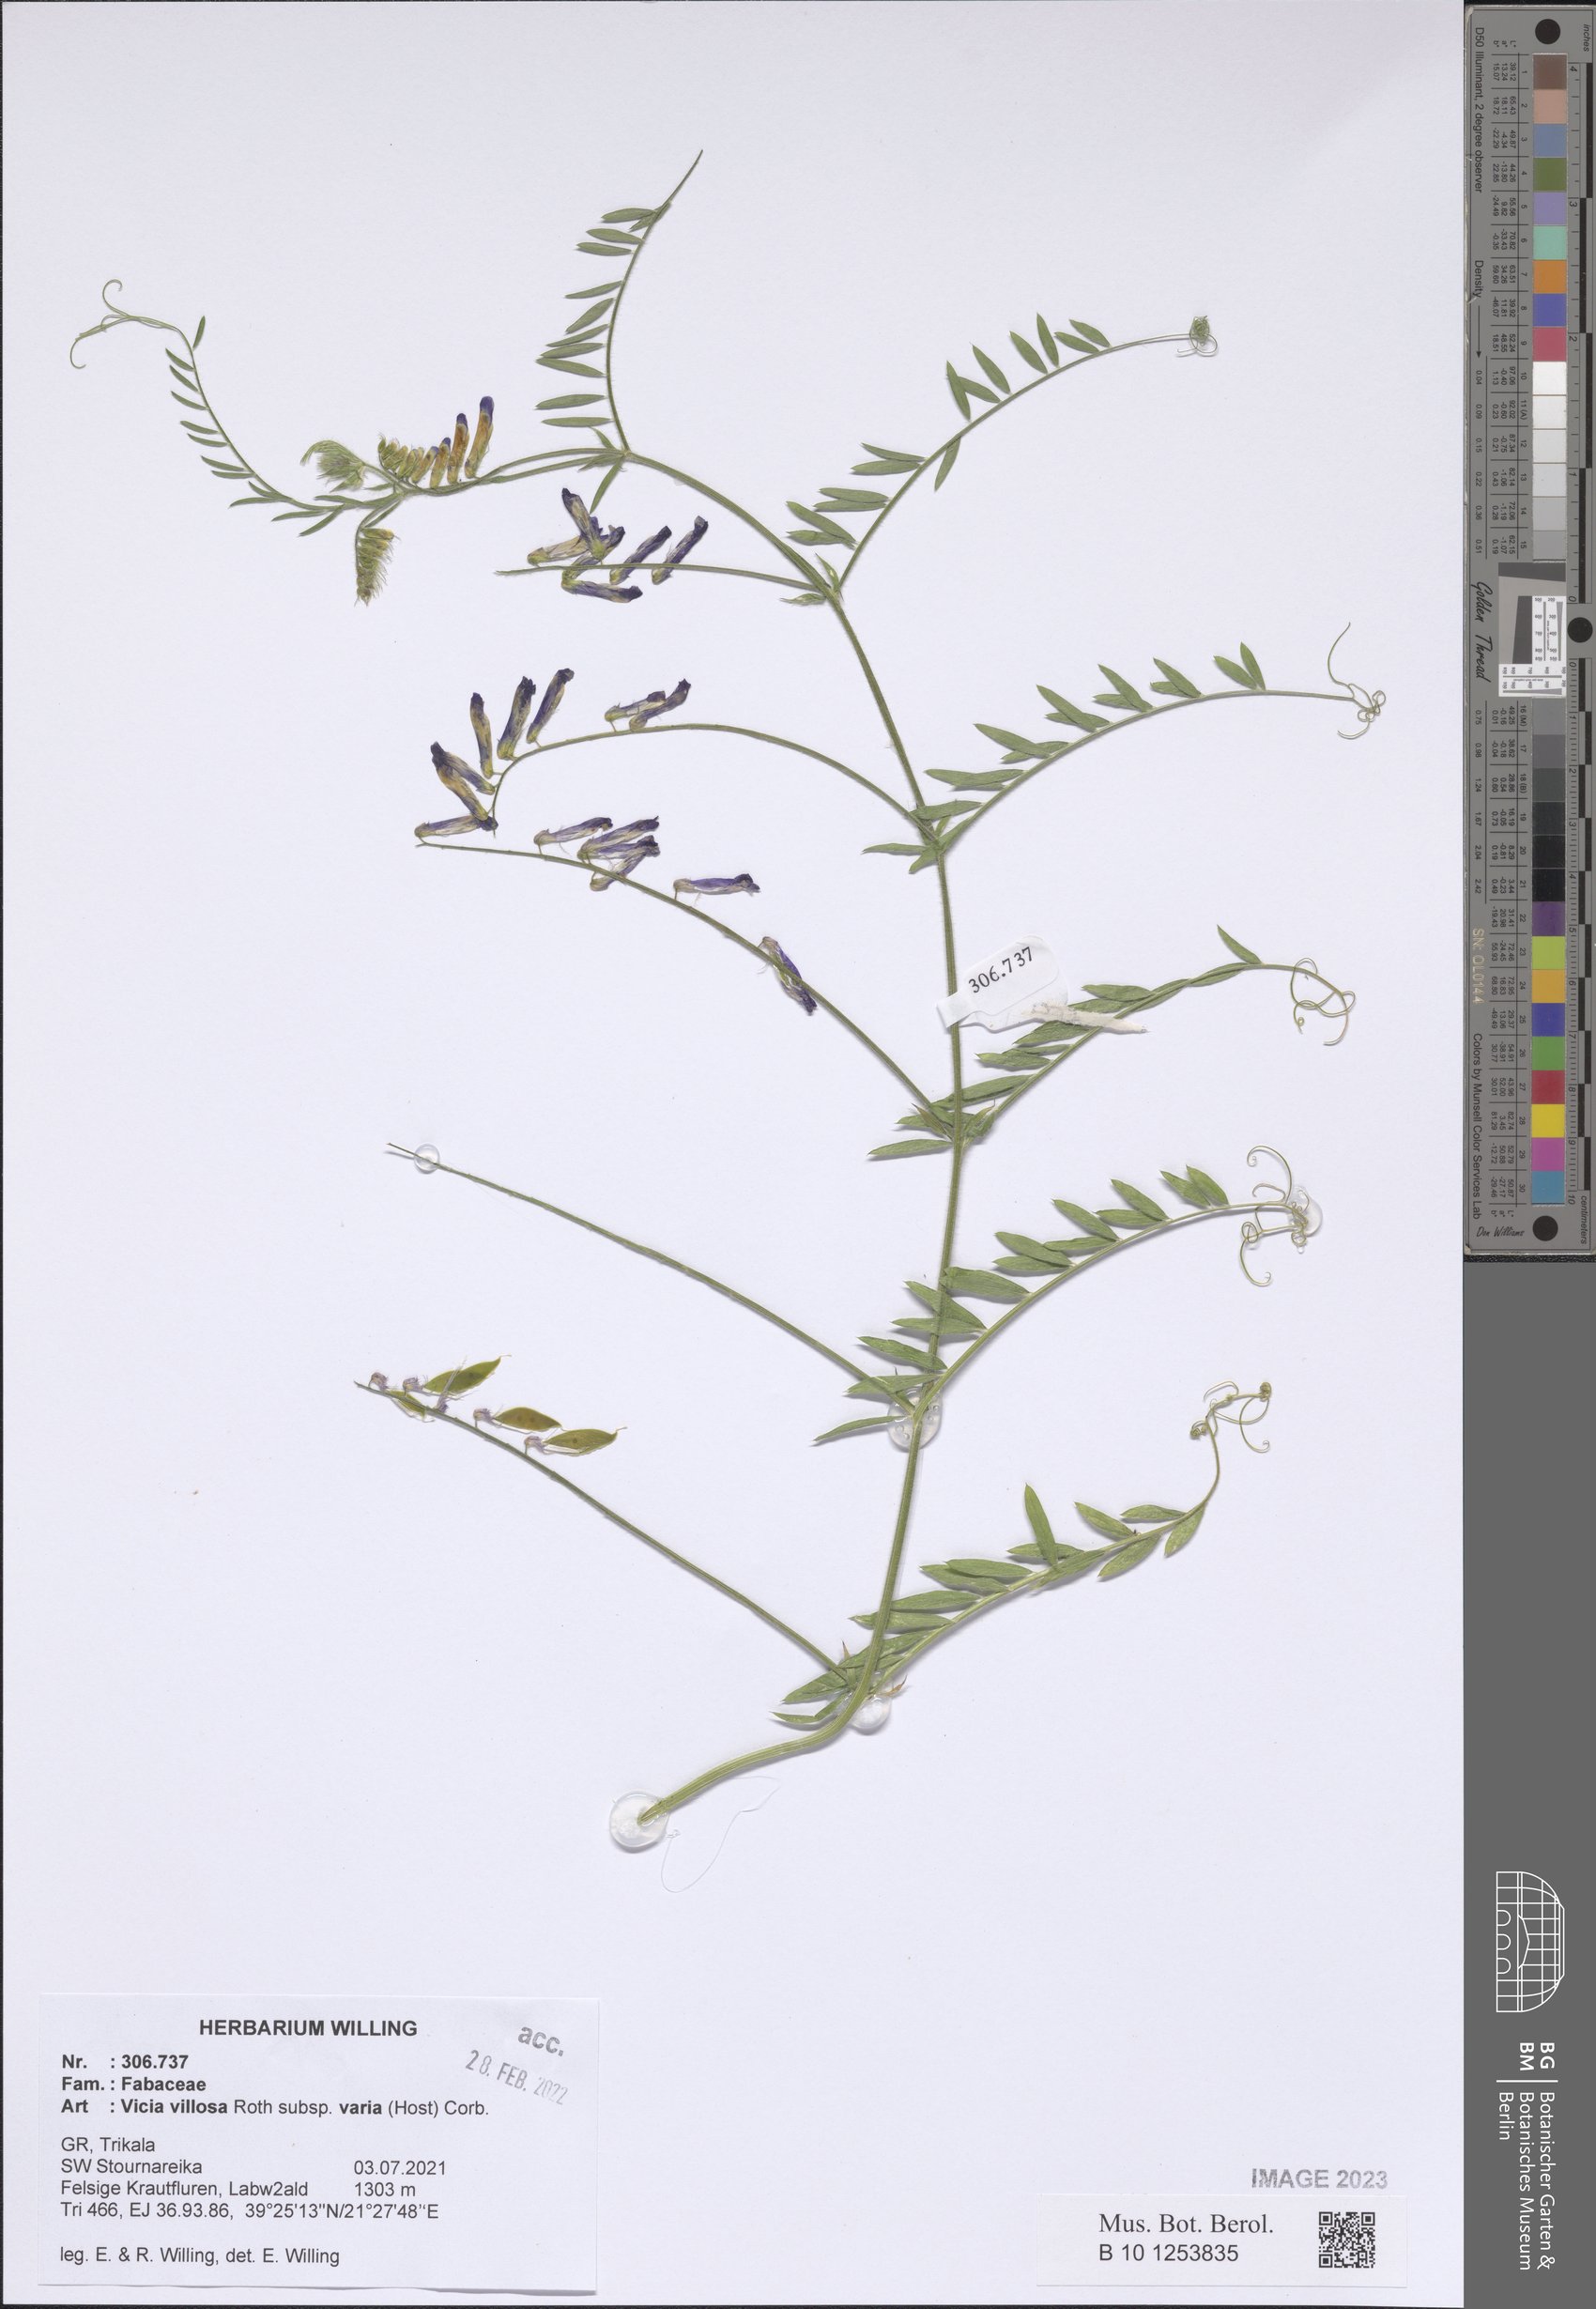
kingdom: Plantae
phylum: Tracheophyta
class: Magnoliopsida
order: Fabales
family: Fabaceae
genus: Vicia
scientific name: Vicia villosa
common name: Fodder vetch
